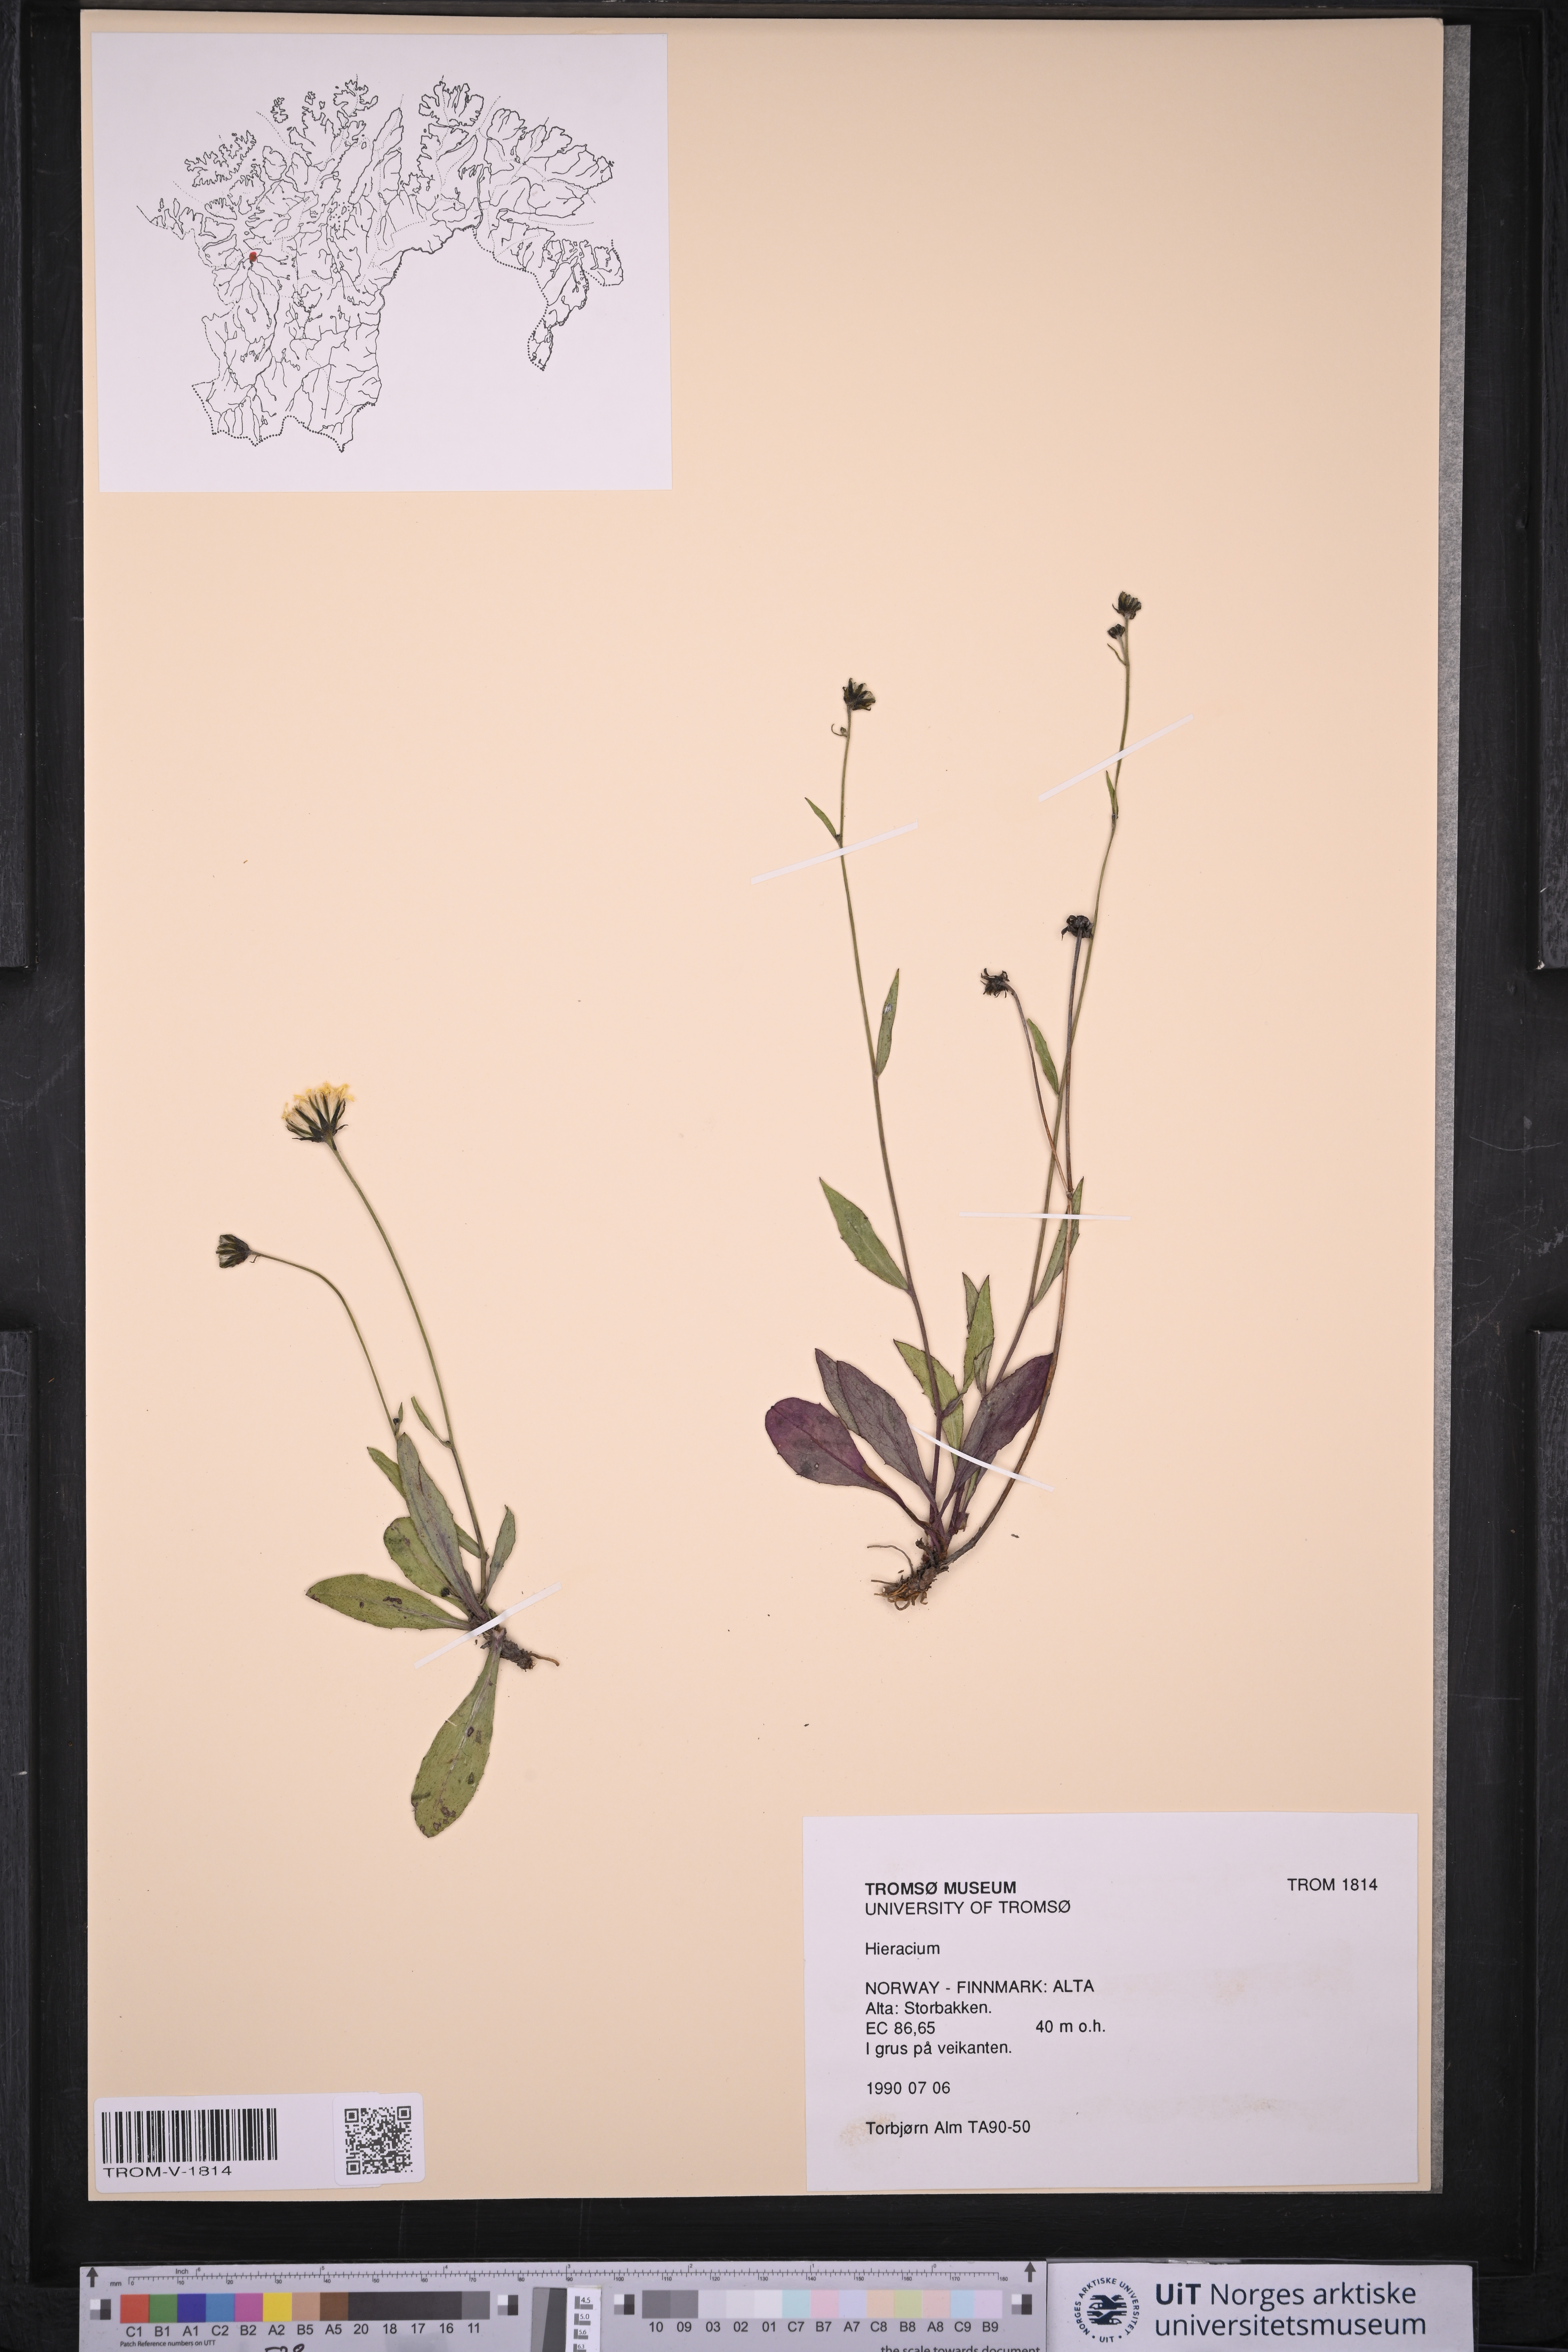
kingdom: Plantae
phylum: Tracheophyta
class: Magnoliopsida
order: Asterales
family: Asteraceae
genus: Hieracium
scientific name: Hieracium
